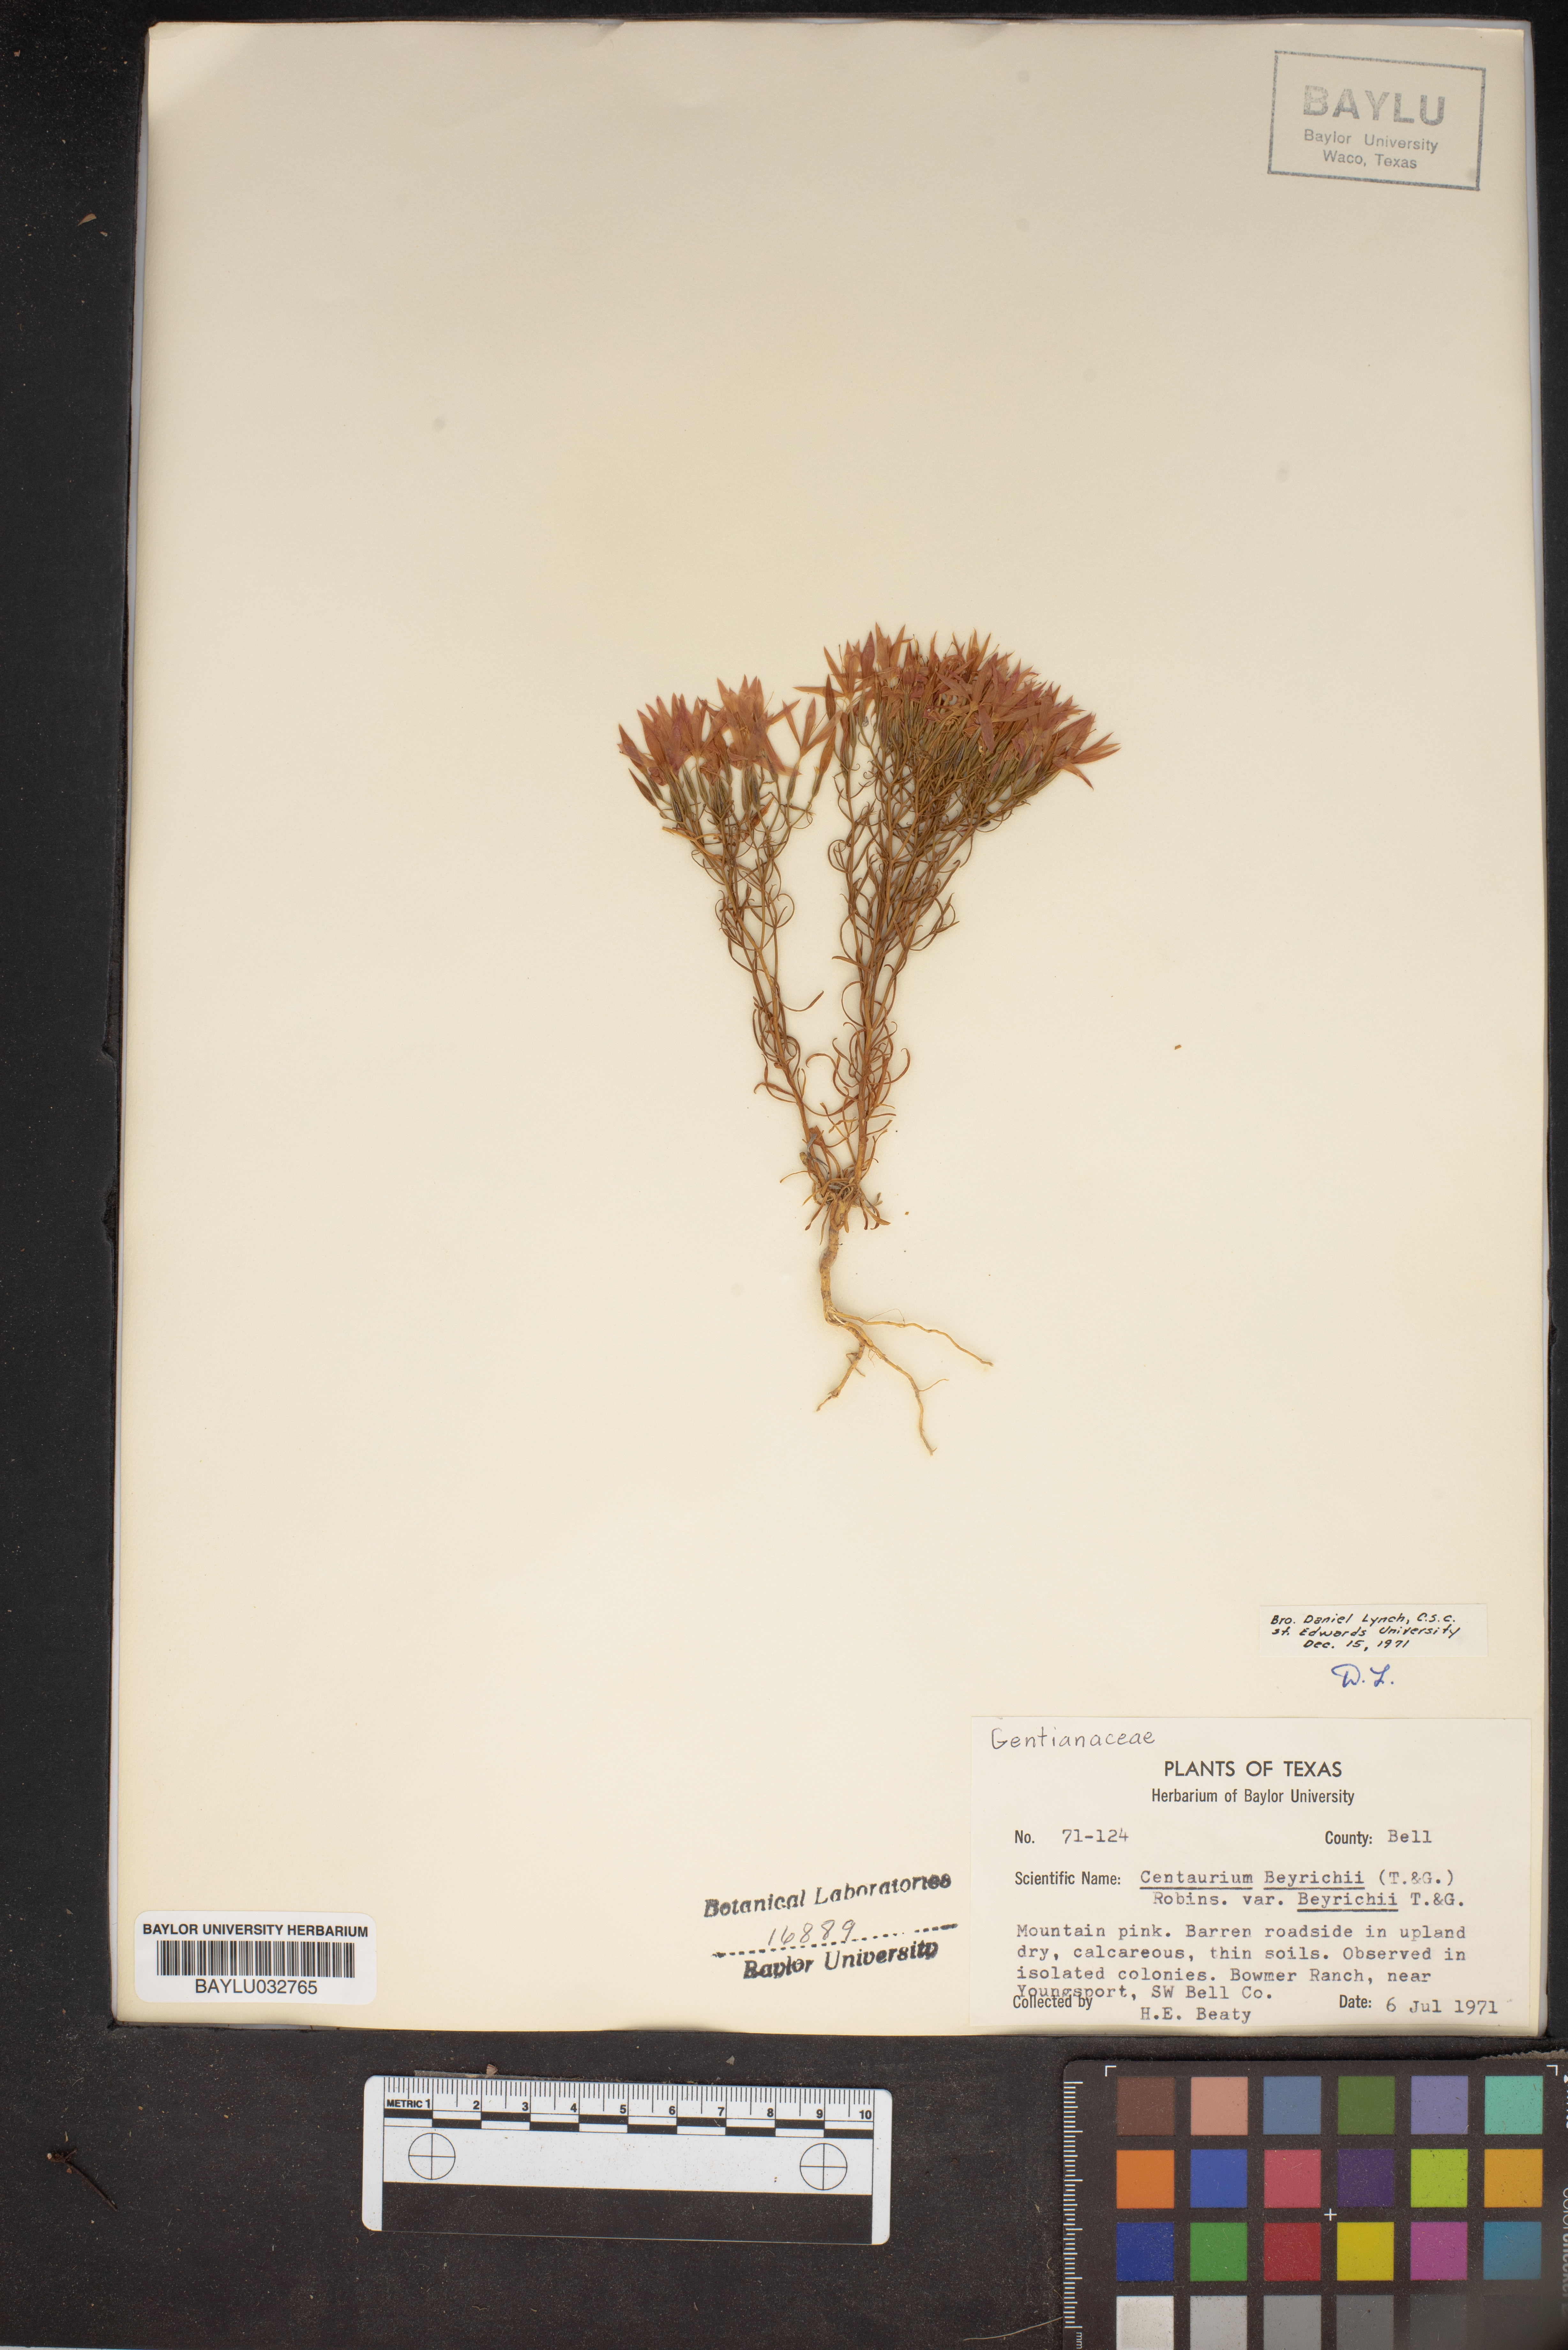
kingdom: Plantae
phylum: Tracheophyta
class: Magnoliopsida
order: Gentianales
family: Gentianaceae
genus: Zeltnera
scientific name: Zeltnera beyrichii
